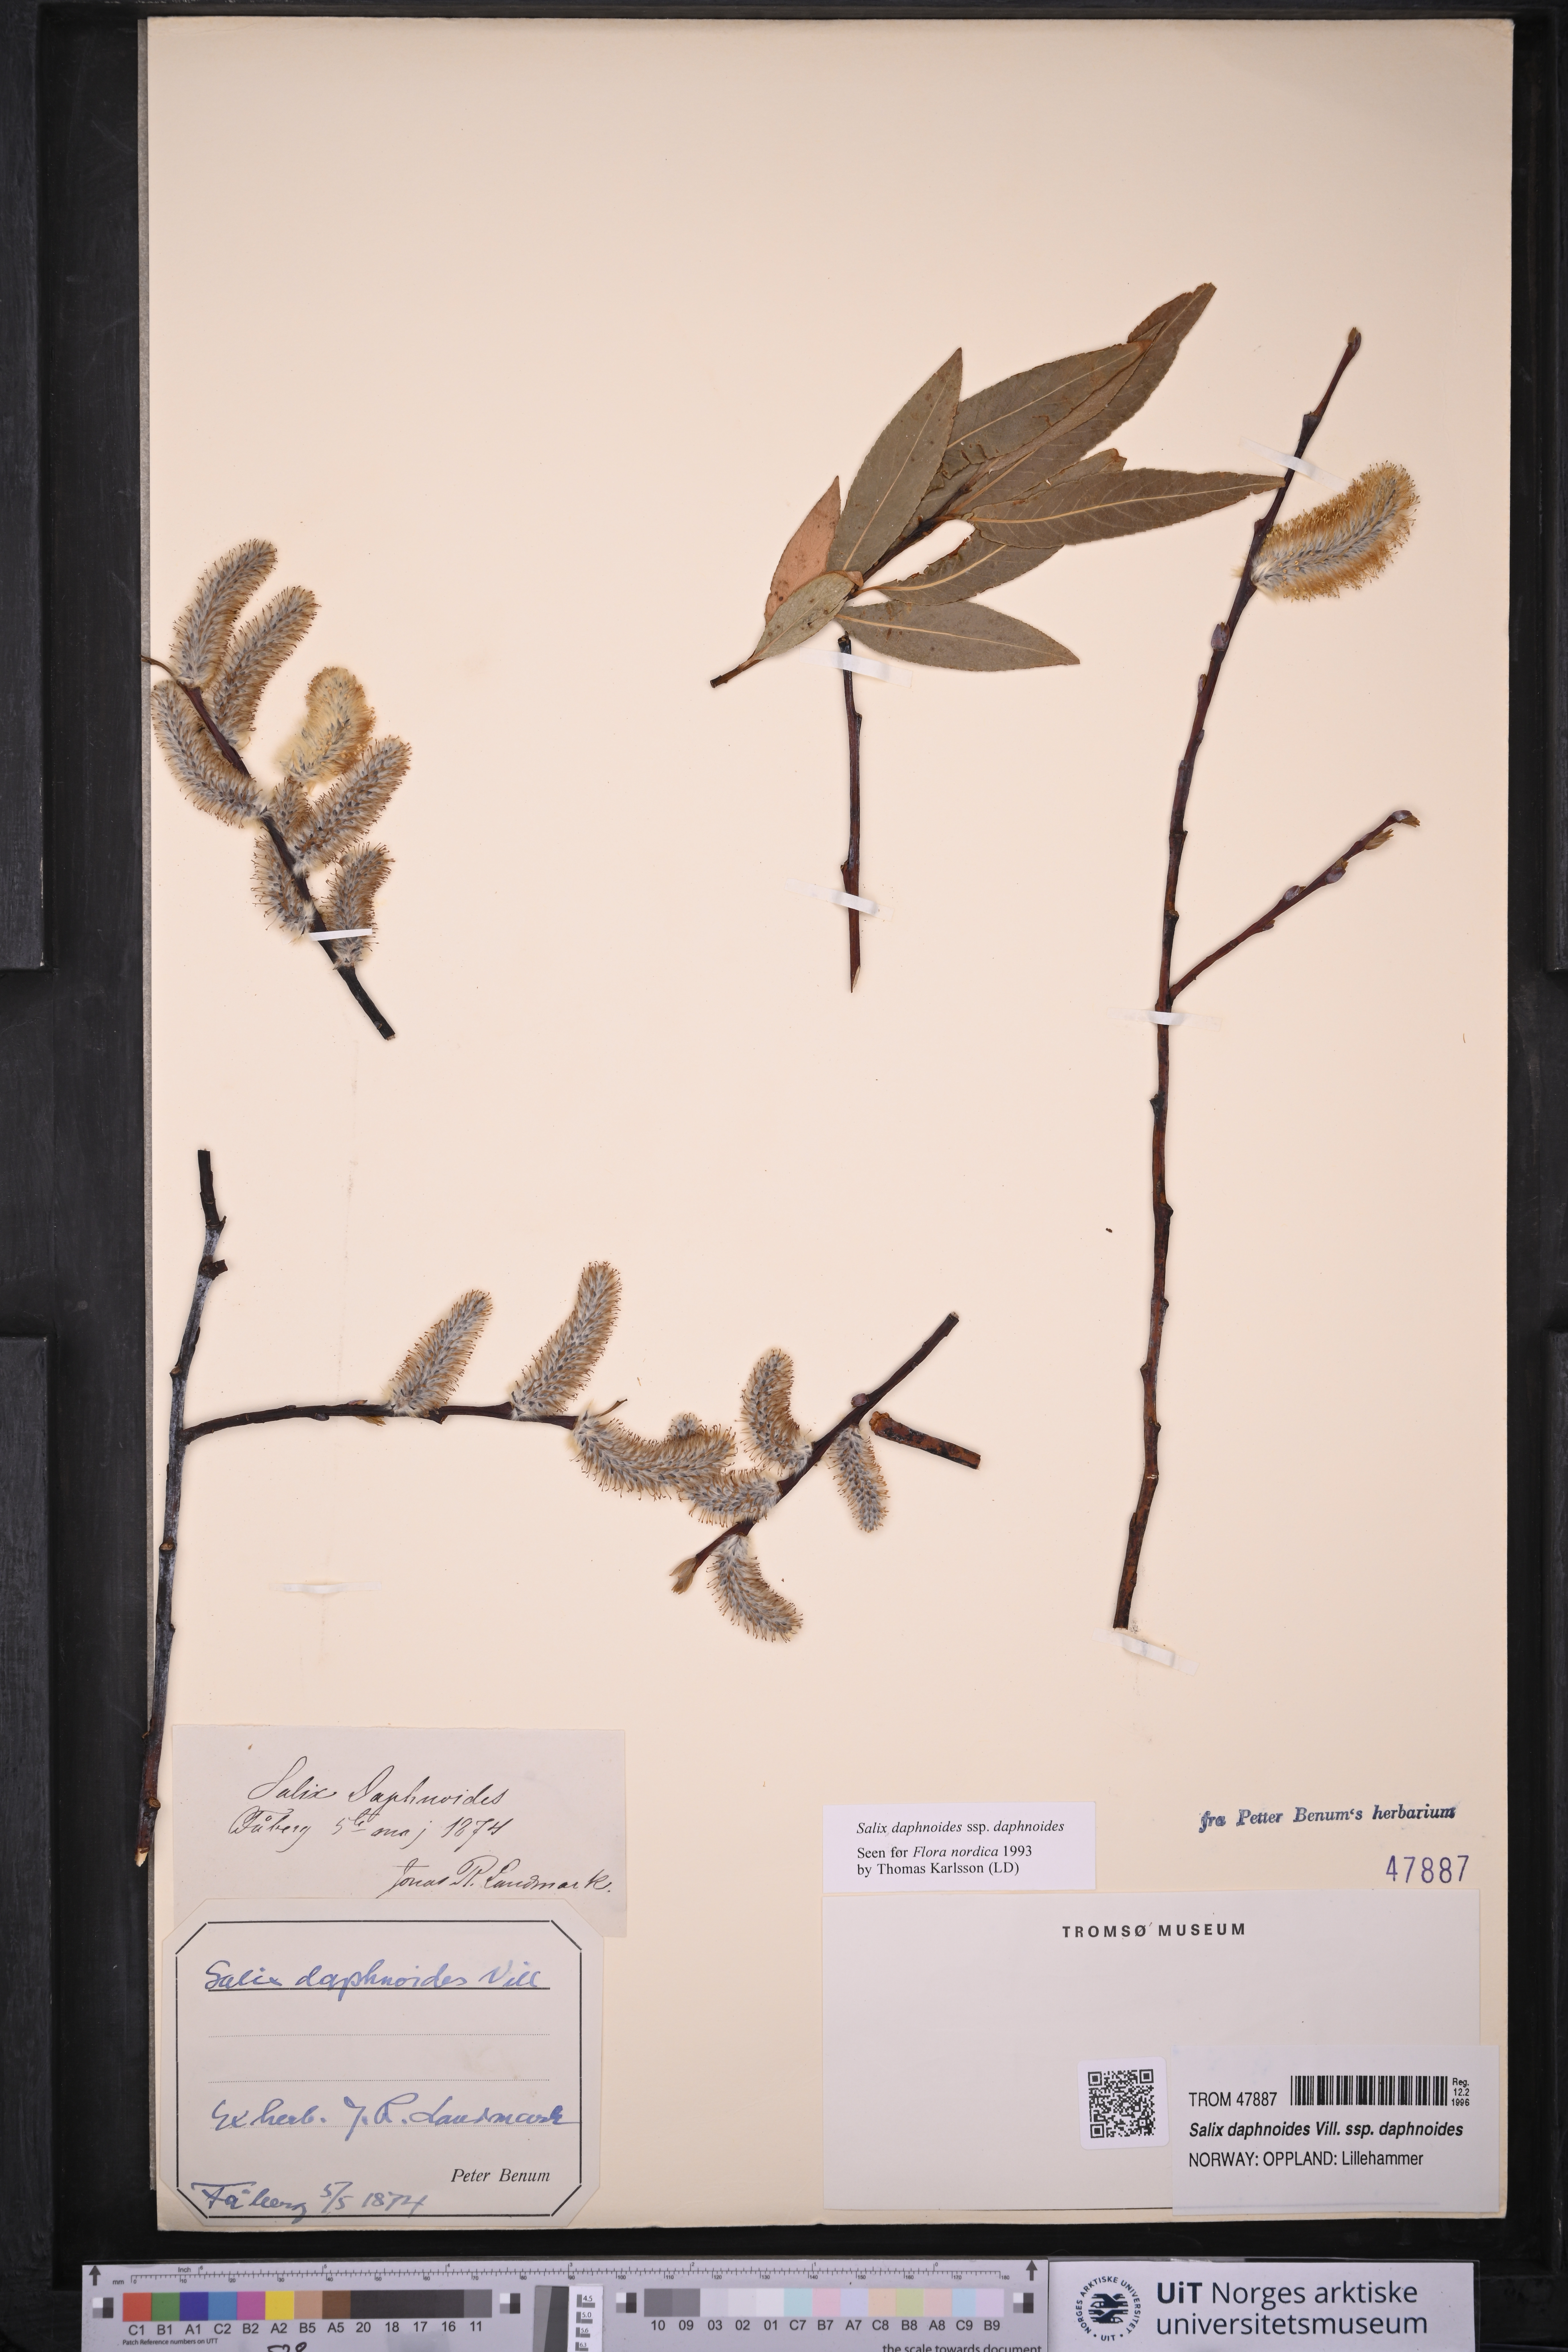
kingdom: Plantae
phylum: Tracheophyta
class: Magnoliopsida
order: Malpighiales
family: Salicaceae
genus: Salix
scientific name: Salix daphnoides
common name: European violet-willow
